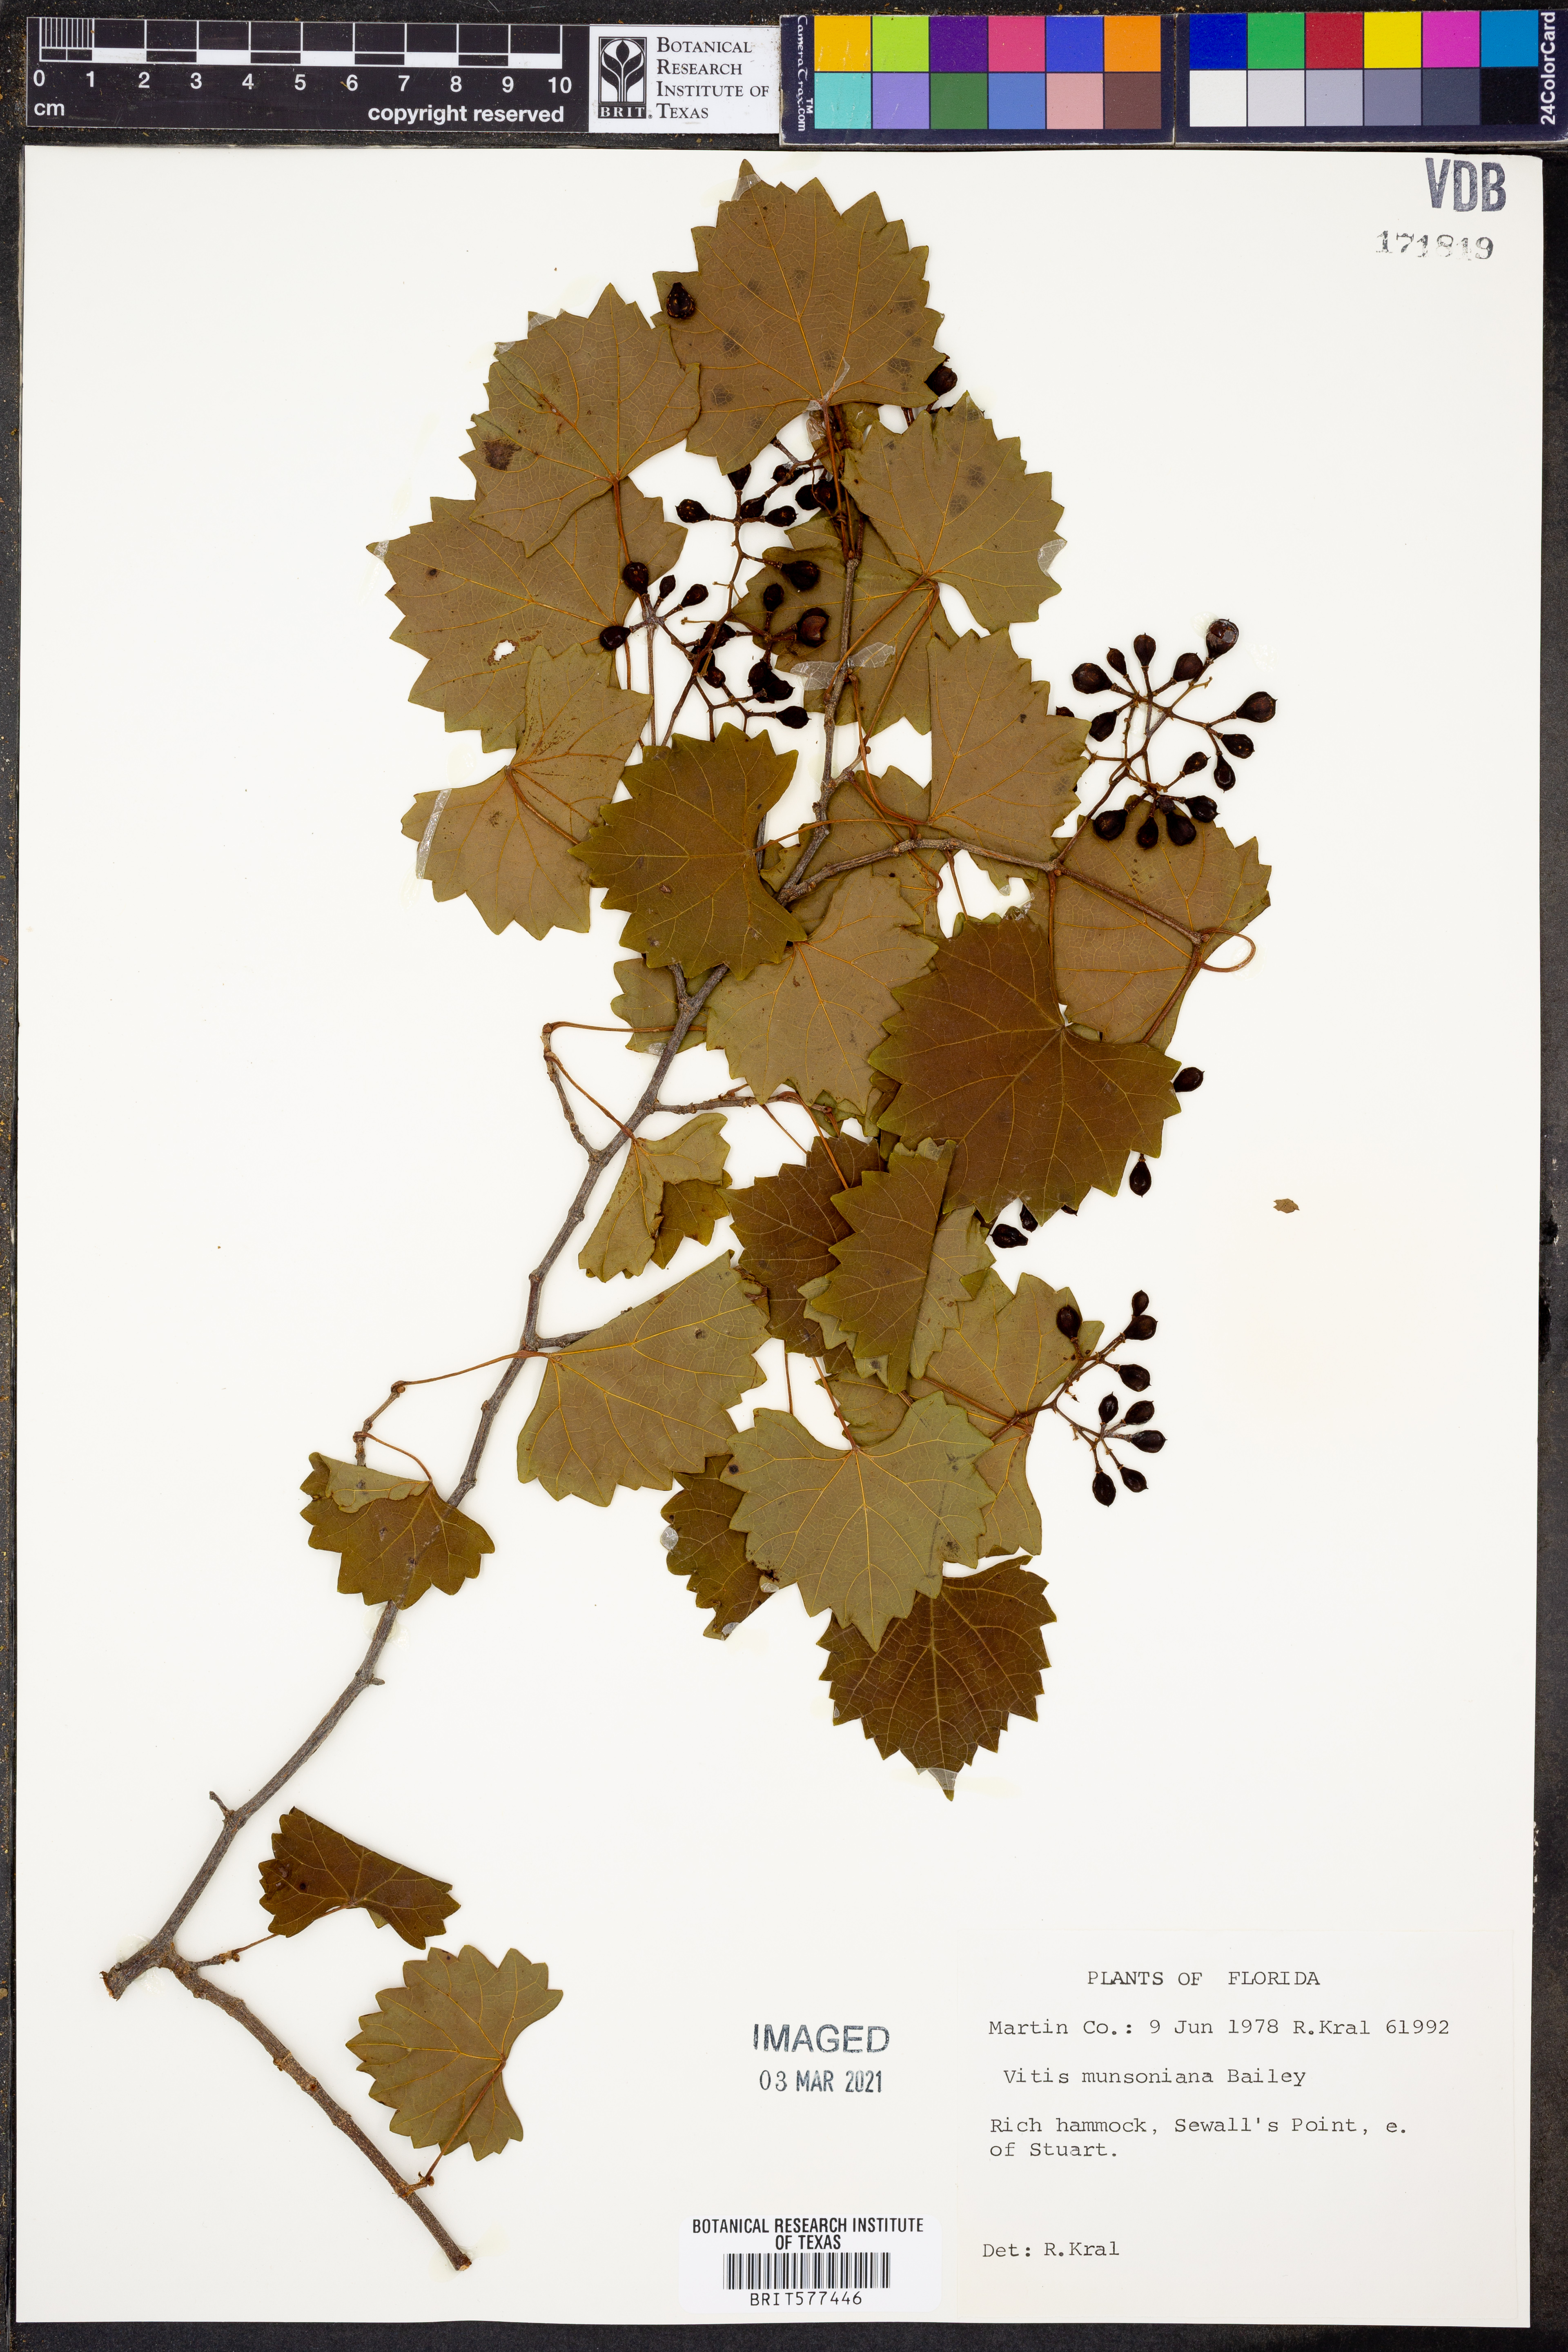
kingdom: Plantae
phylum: Tracheophyta
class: Magnoliopsida
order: Vitales
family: Vitaceae
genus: Vitis
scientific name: Vitis rotundifolia
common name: Muscadine grape
